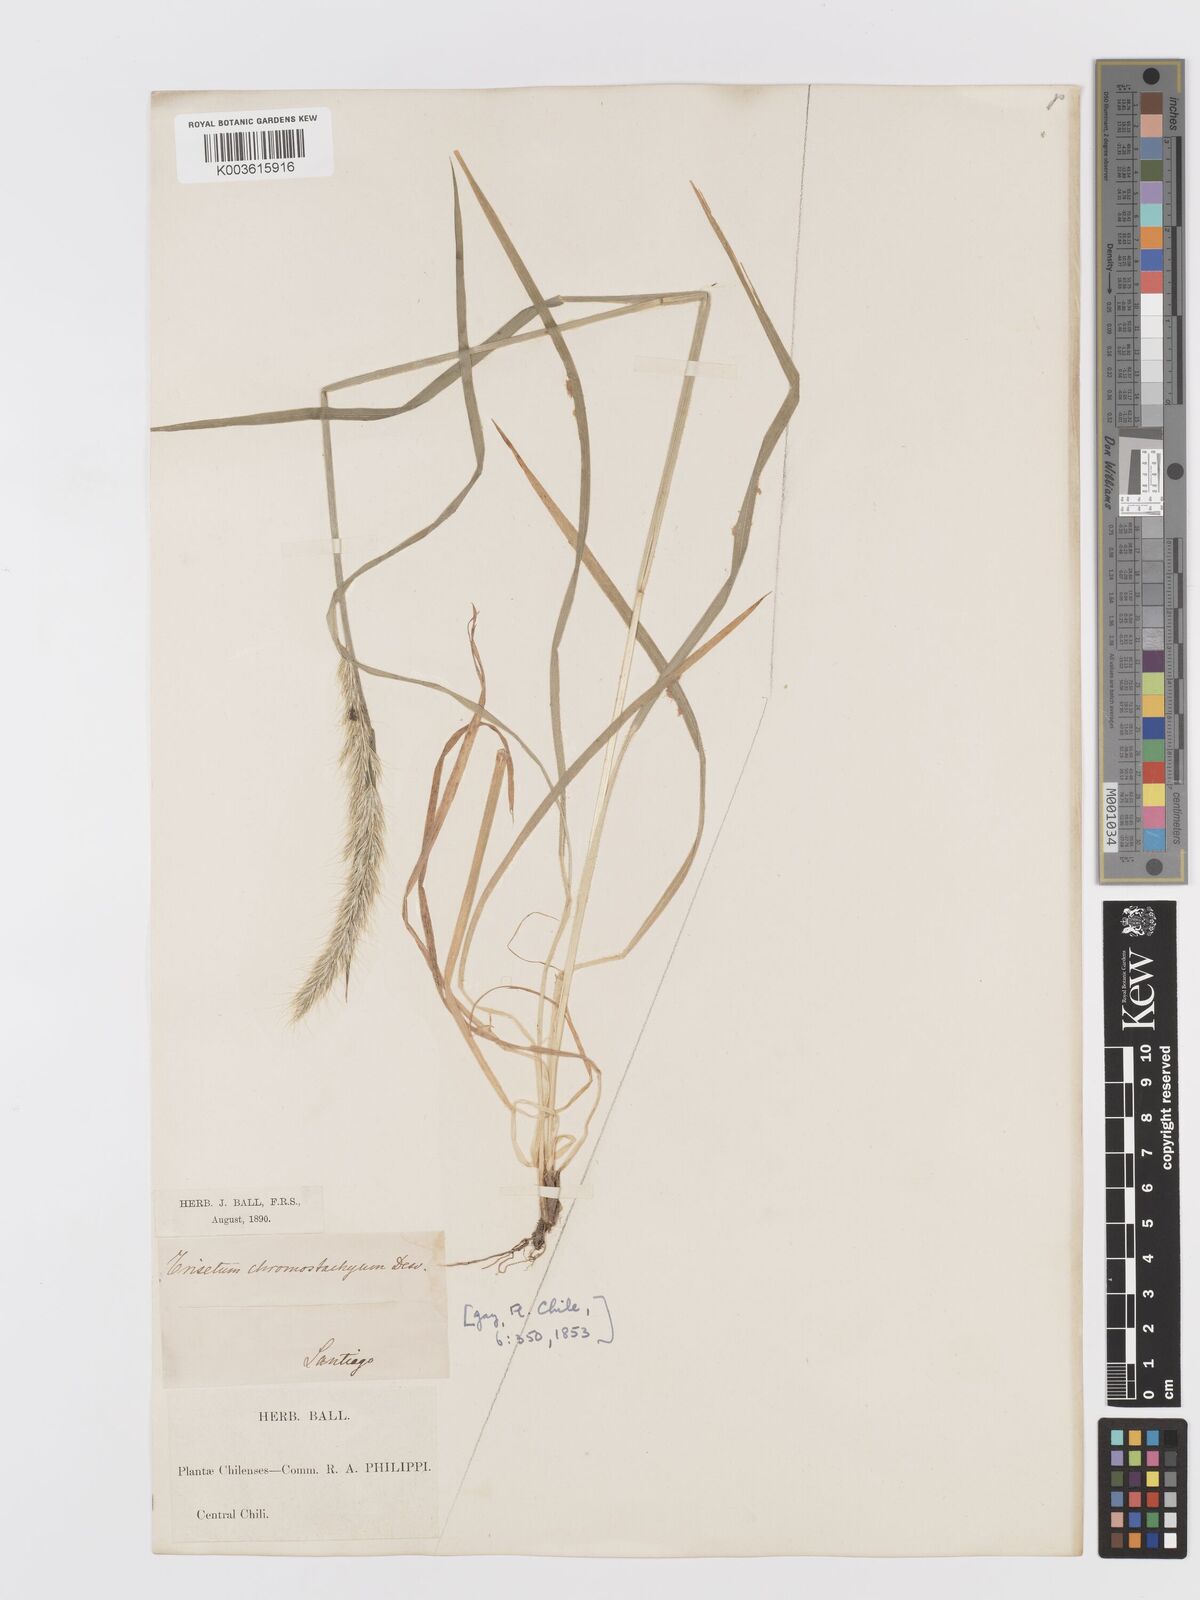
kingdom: Plantae
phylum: Tracheophyta
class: Liliopsida
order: Poales
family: Poaceae
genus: Trisetum
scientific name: Trisetum caudulatum
